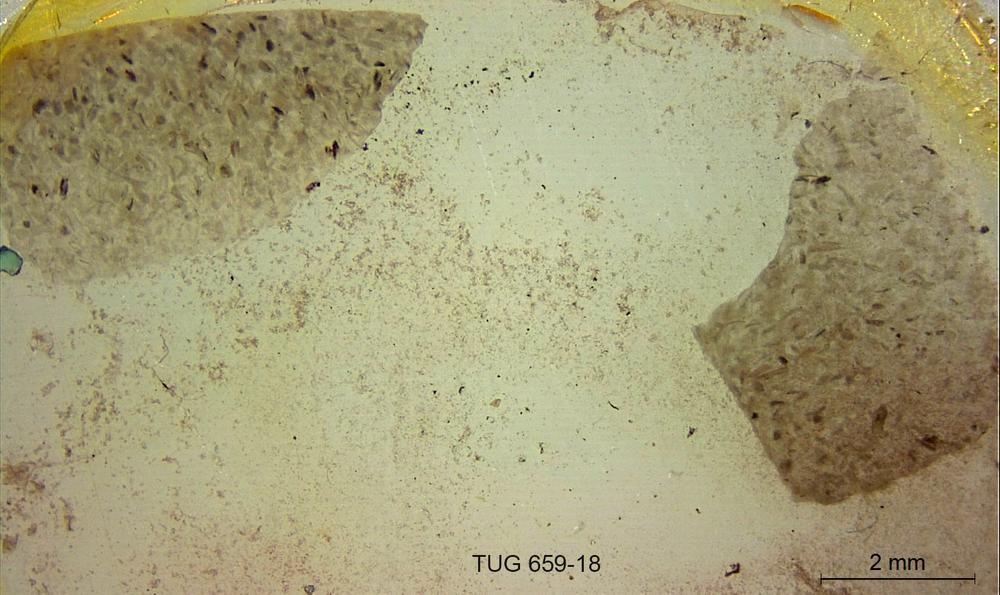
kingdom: Animalia
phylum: Porifera
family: Stromatoporidae
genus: Stromatopora
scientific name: Stromatopora
